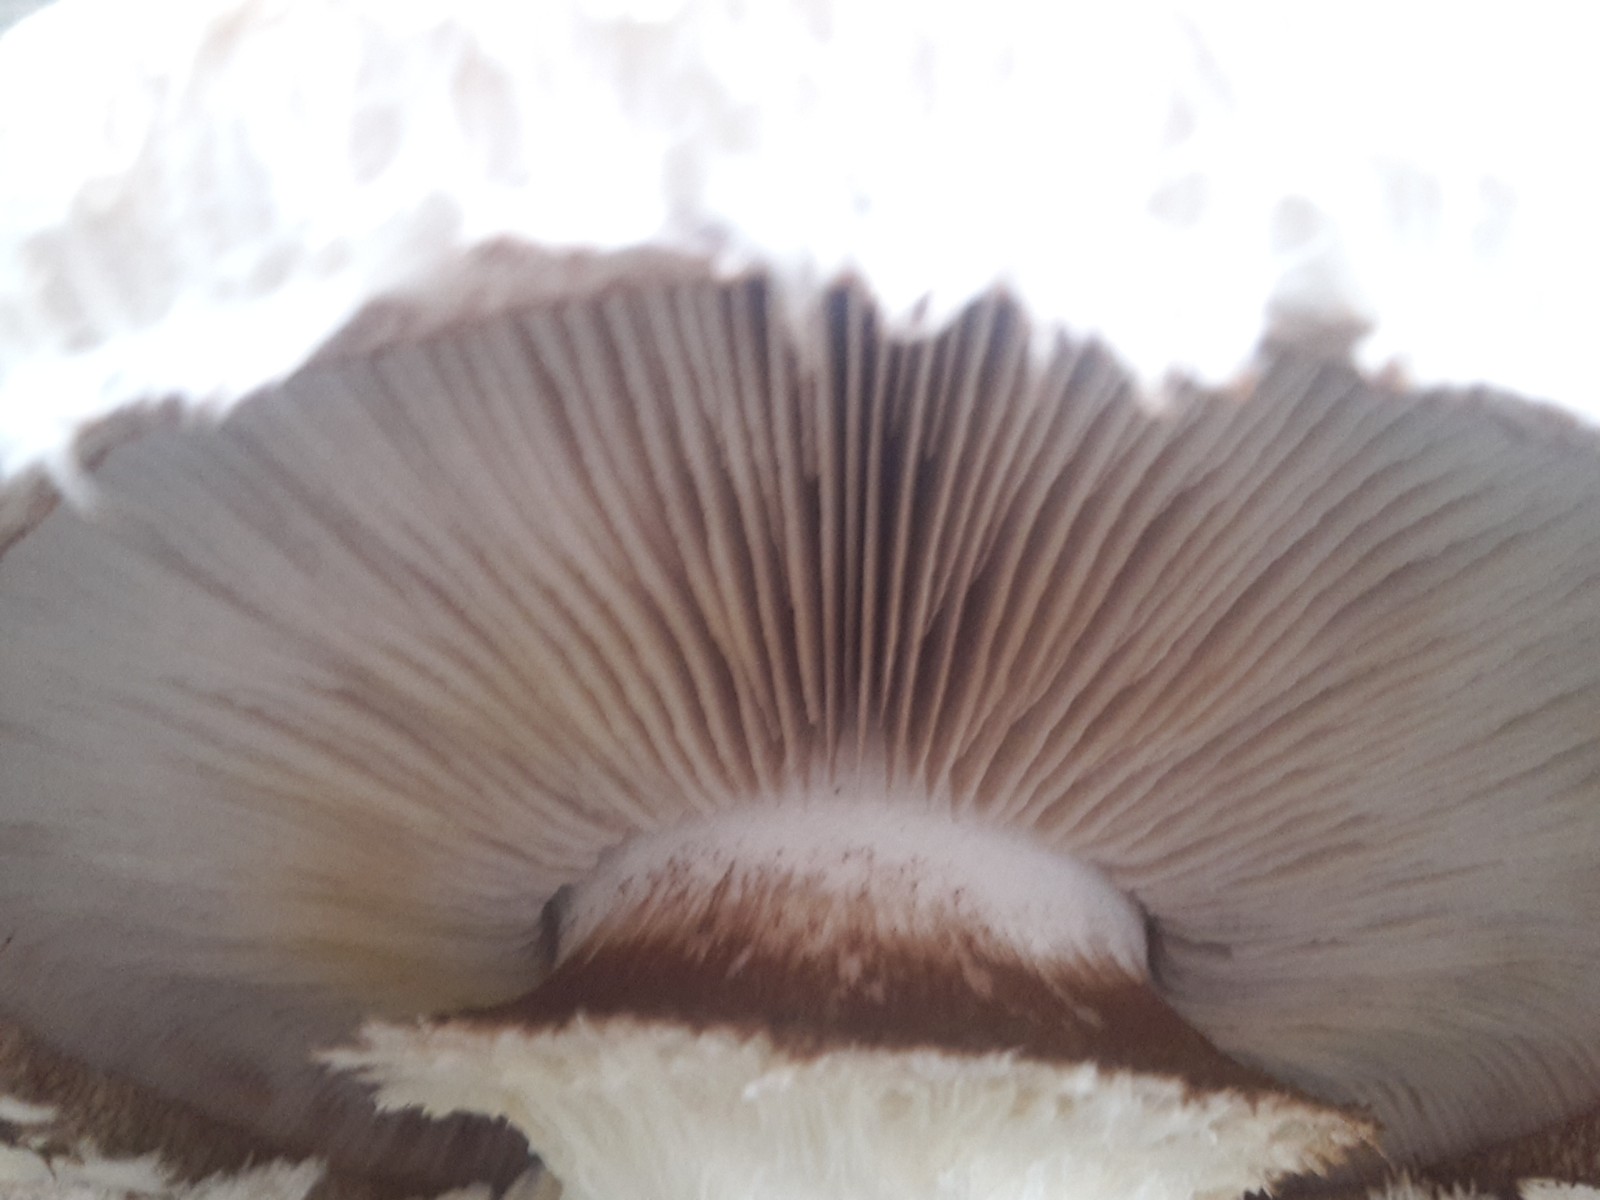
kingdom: Fungi
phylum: Basidiomycota
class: Agaricomycetes
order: Agaricales
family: Strophariaceae
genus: Pholiota
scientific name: Pholiota populnea
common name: poppel-kæmpeskælhat
